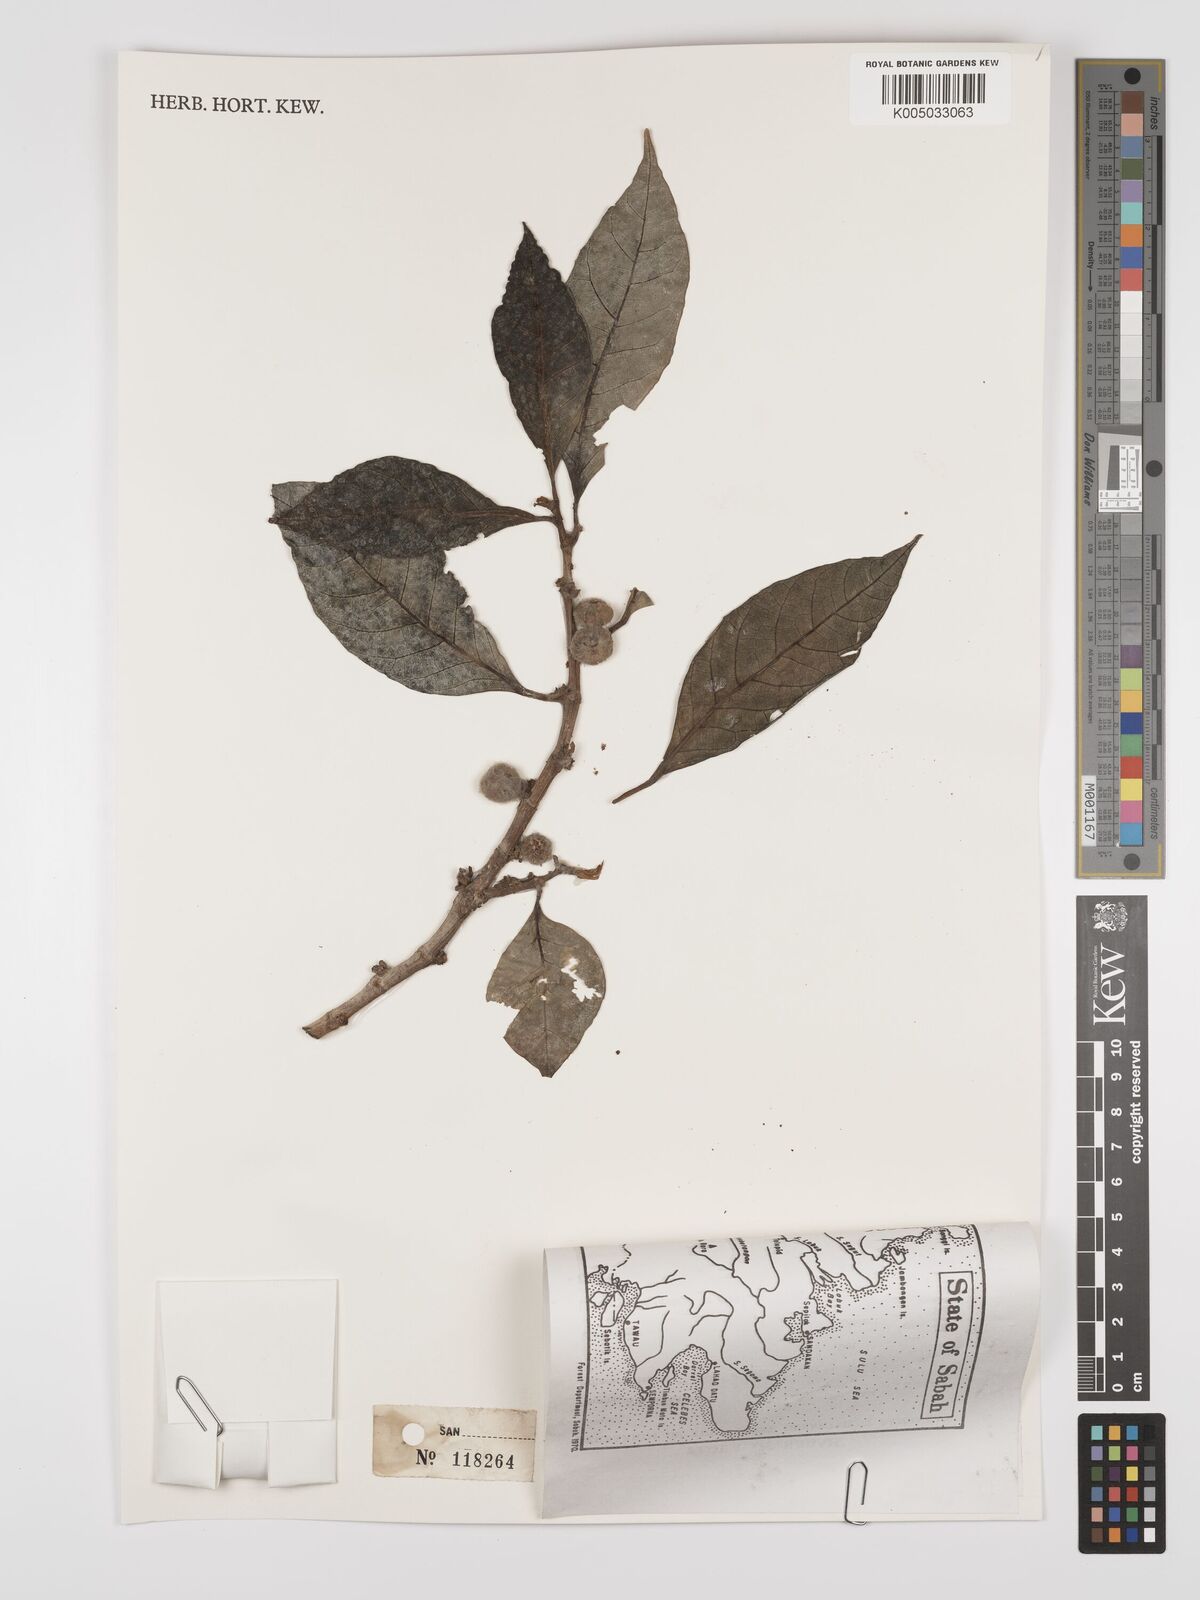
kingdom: Plantae
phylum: Tracheophyta
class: Magnoliopsida
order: Rosales
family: Moraceae
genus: Ficus
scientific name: Ficus septica
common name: Septic fig
